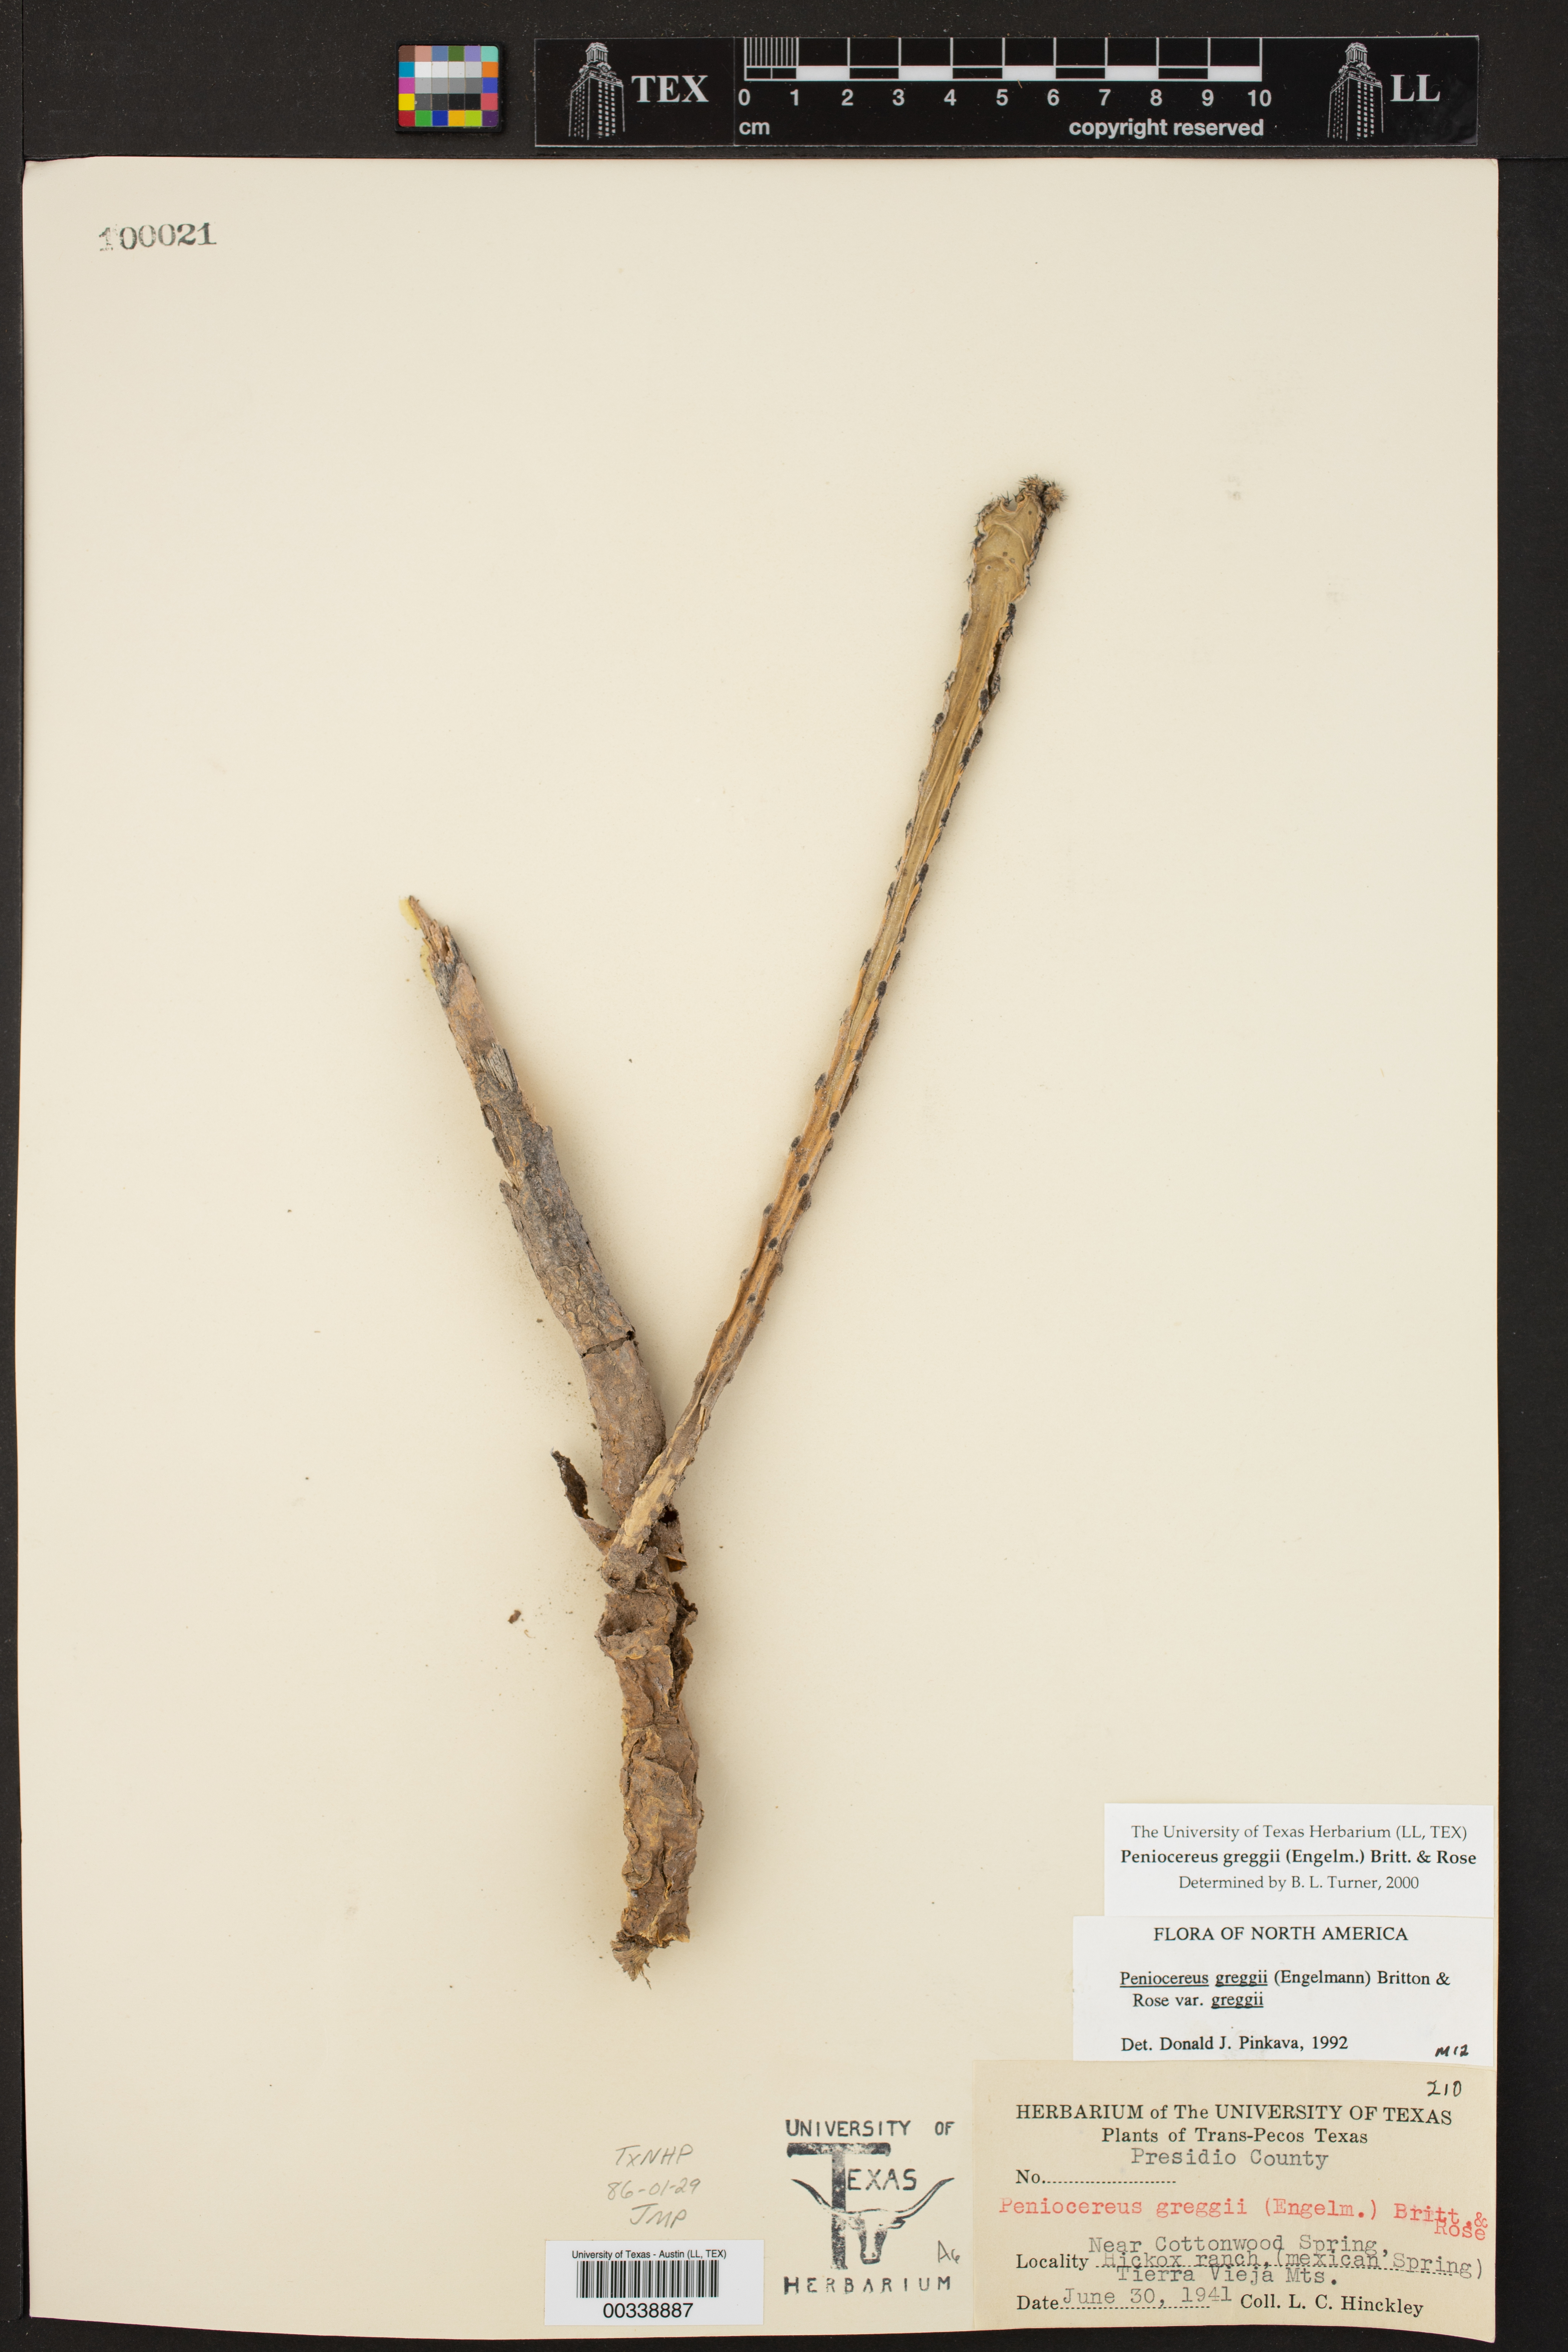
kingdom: Plantae
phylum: Tracheophyta
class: Magnoliopsida
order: Caryophyllales
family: Cactaceae
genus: Peniocereus
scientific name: Peniocereus greggii
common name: Desert night-blooming cereus
